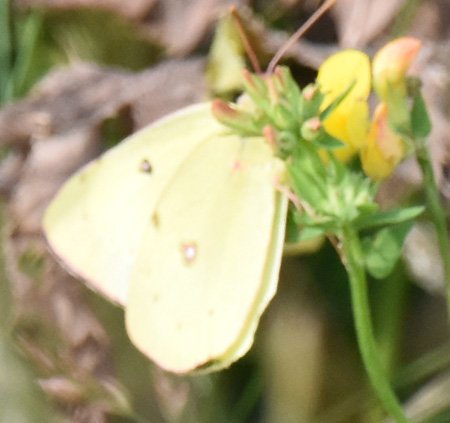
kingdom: Animalia
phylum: Arthropoda
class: Insecta
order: Lepidoptera
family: Pieridae
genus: Colias
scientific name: Colias philodice
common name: Clouded Sulphur
